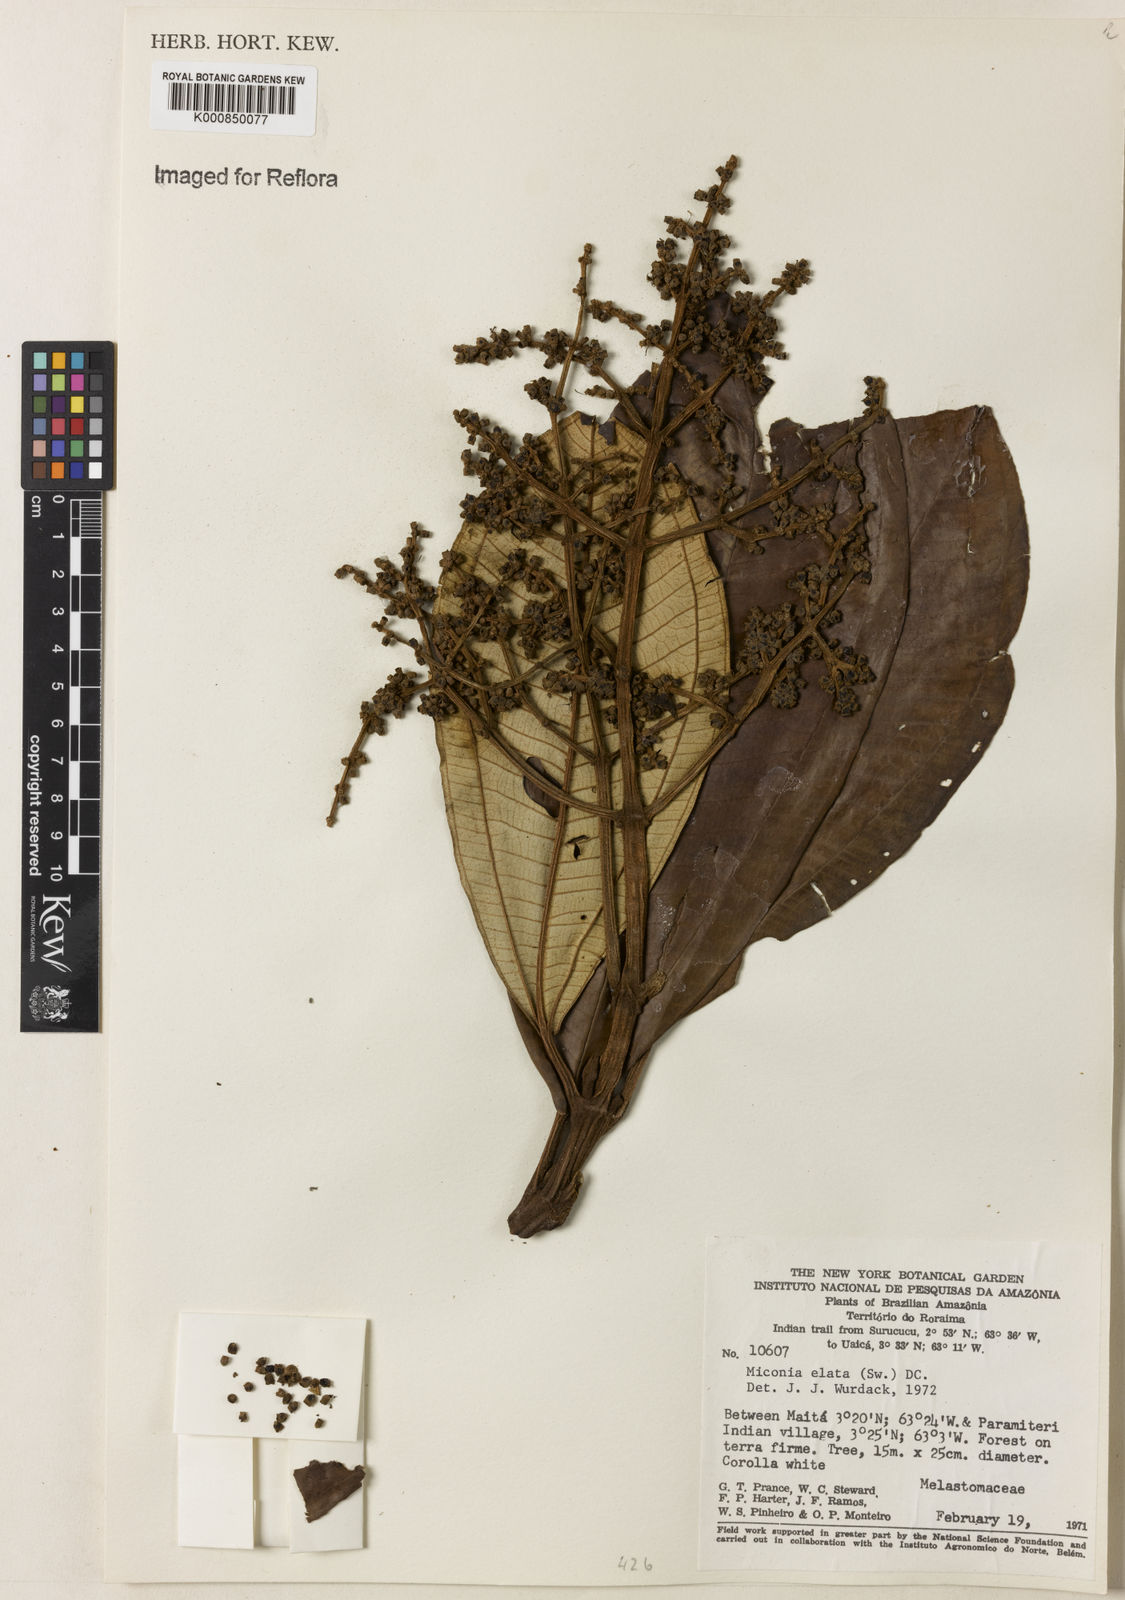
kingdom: Plantae
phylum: Tracheophyta
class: Magnoliopsida
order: Myrtales
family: Melastomataceae
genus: Miconia
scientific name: Miconia elata
